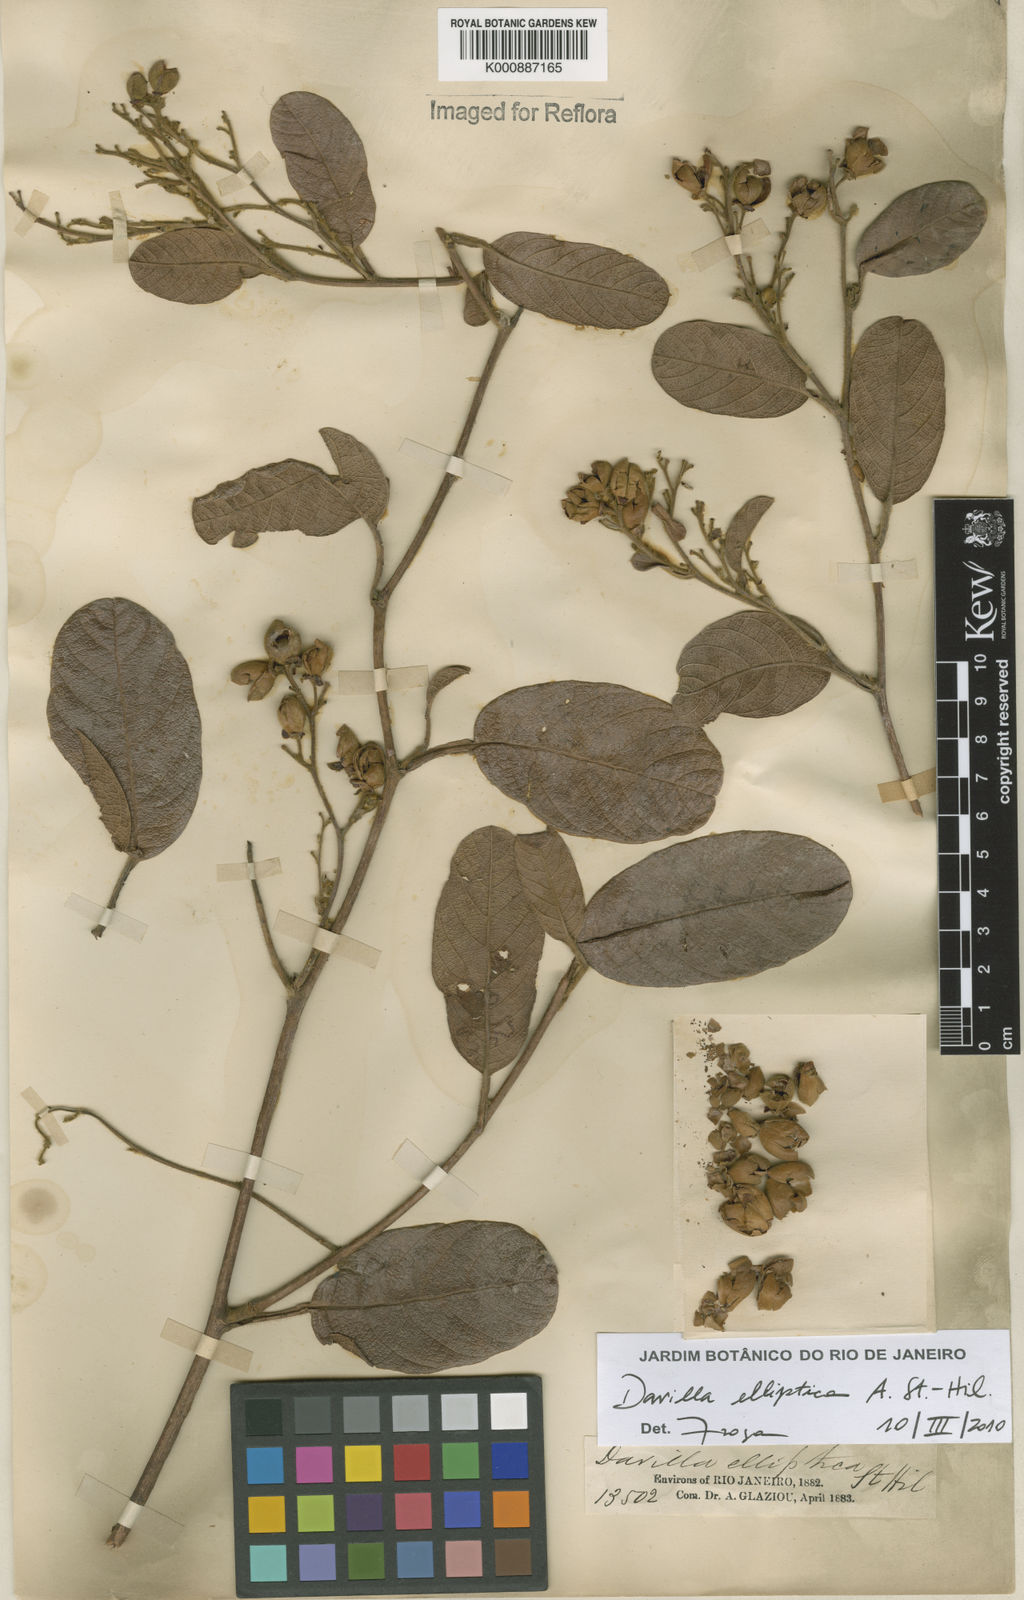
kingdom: Plantae
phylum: Tracheophyta
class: Magnoliopsida
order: Dilleniales
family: Dilleniaceae
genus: Davilla
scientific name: Davilla elliptica
